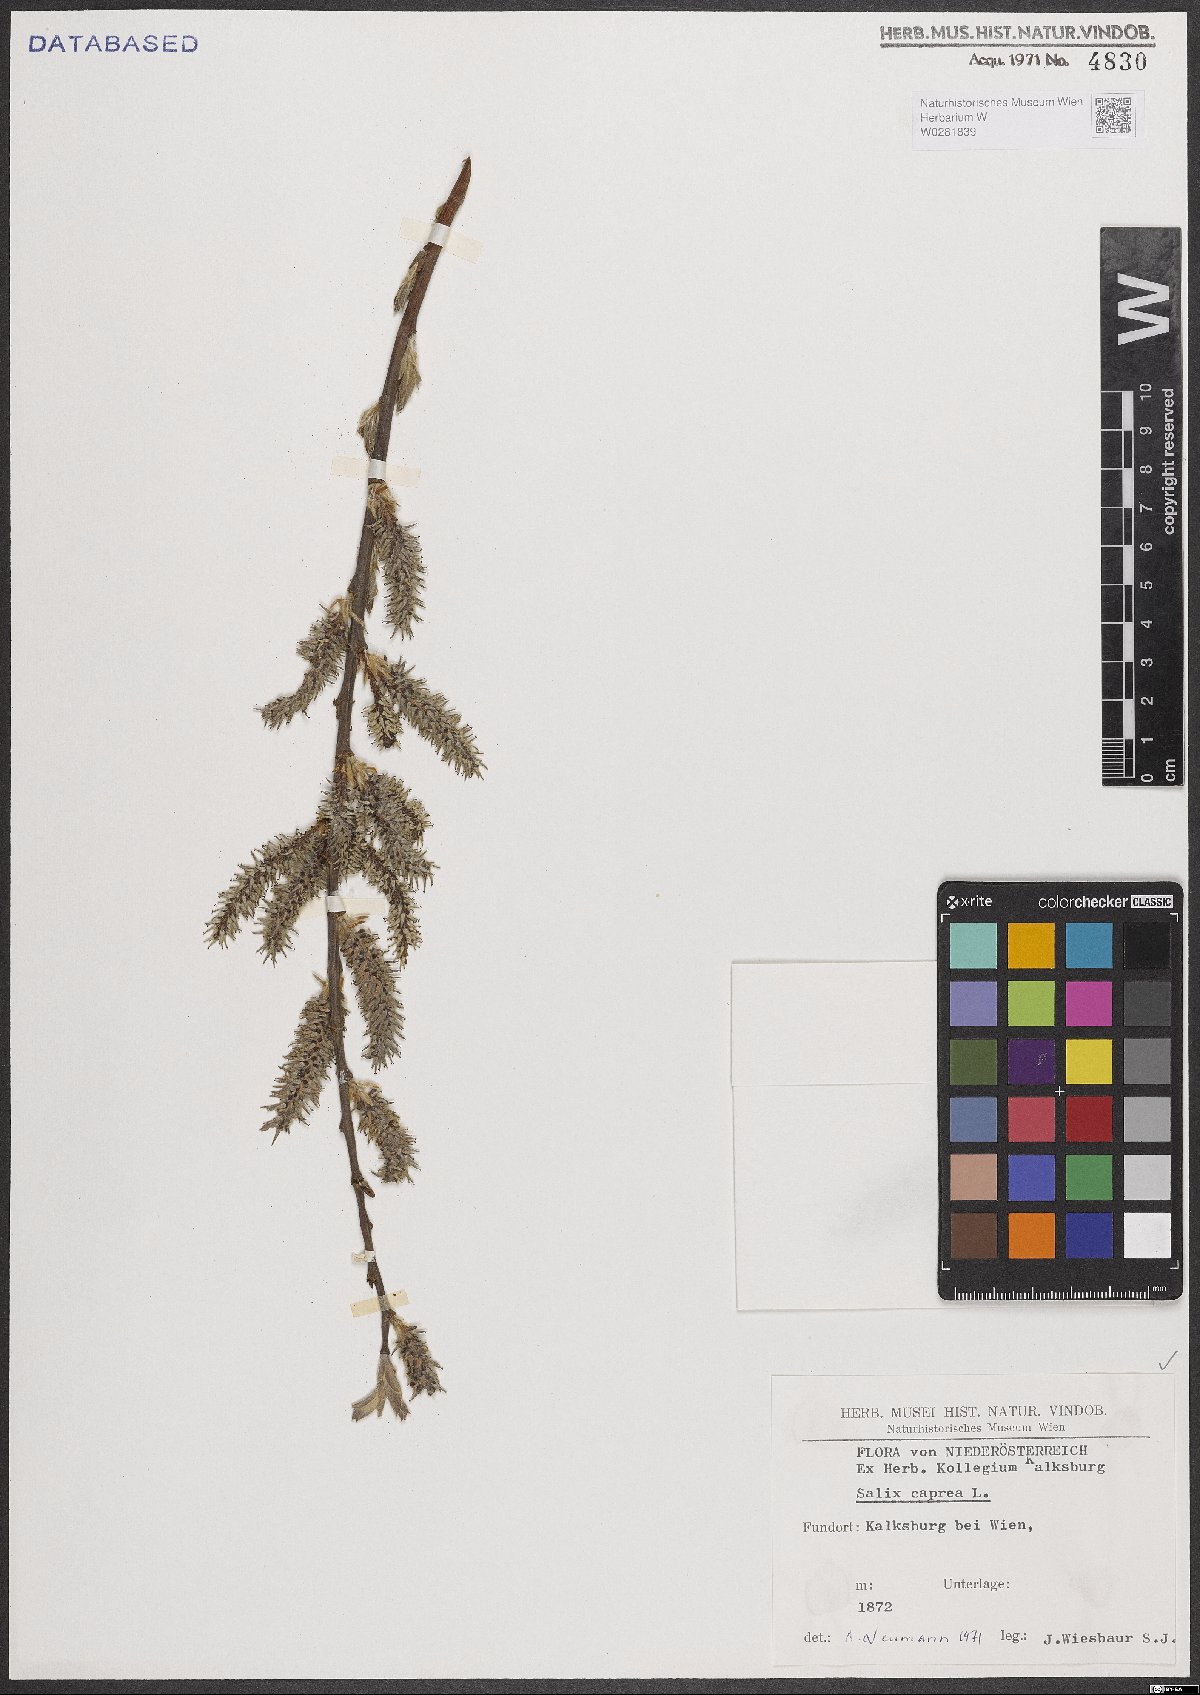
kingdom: Plantae
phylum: Tracheophyta
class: Magnoliopsida
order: Malpighiales
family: Salicaceae
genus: Salix
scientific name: Salix caprea
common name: Goat willow
